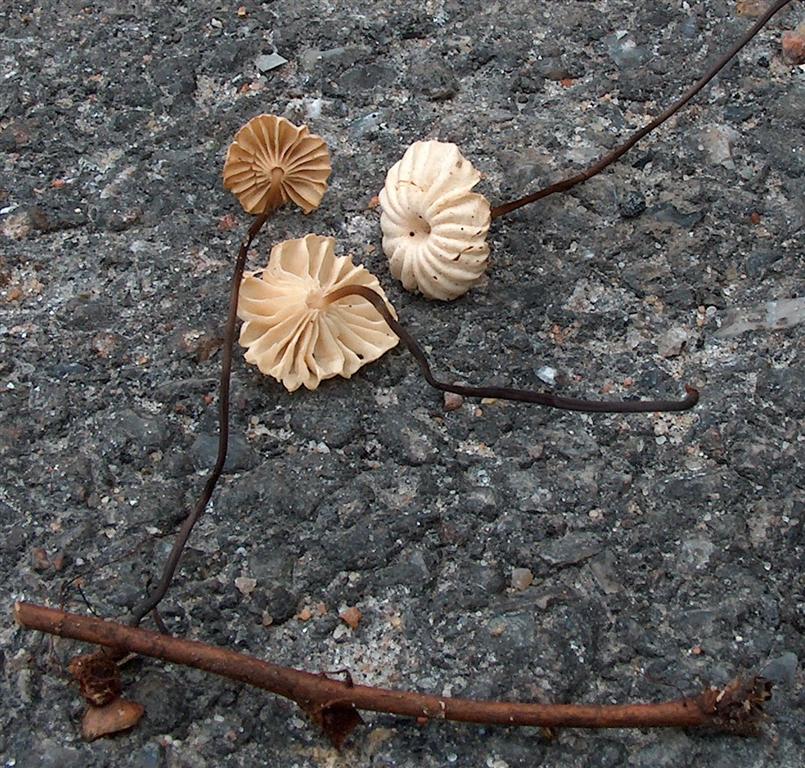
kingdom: Fungi
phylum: Basidiomycota
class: Agaricomycetes
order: Agaricales
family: Marasmiaceae
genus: Marasmius
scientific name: Marasmius rotula
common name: hjul-bruskhat
